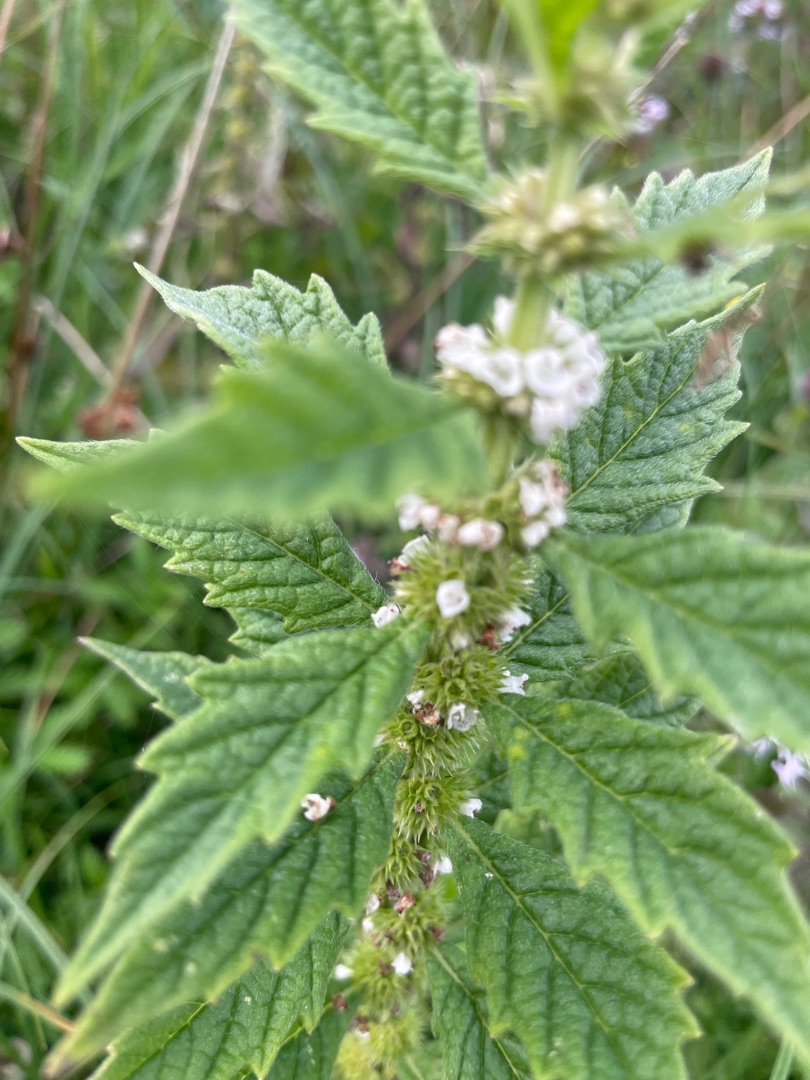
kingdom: Plantae
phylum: Tracheophyta
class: Magnoliopsida
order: Lamiales
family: Lamiaceae
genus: Lycopus
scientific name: Lycopus europaeus
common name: Sværtevæld
